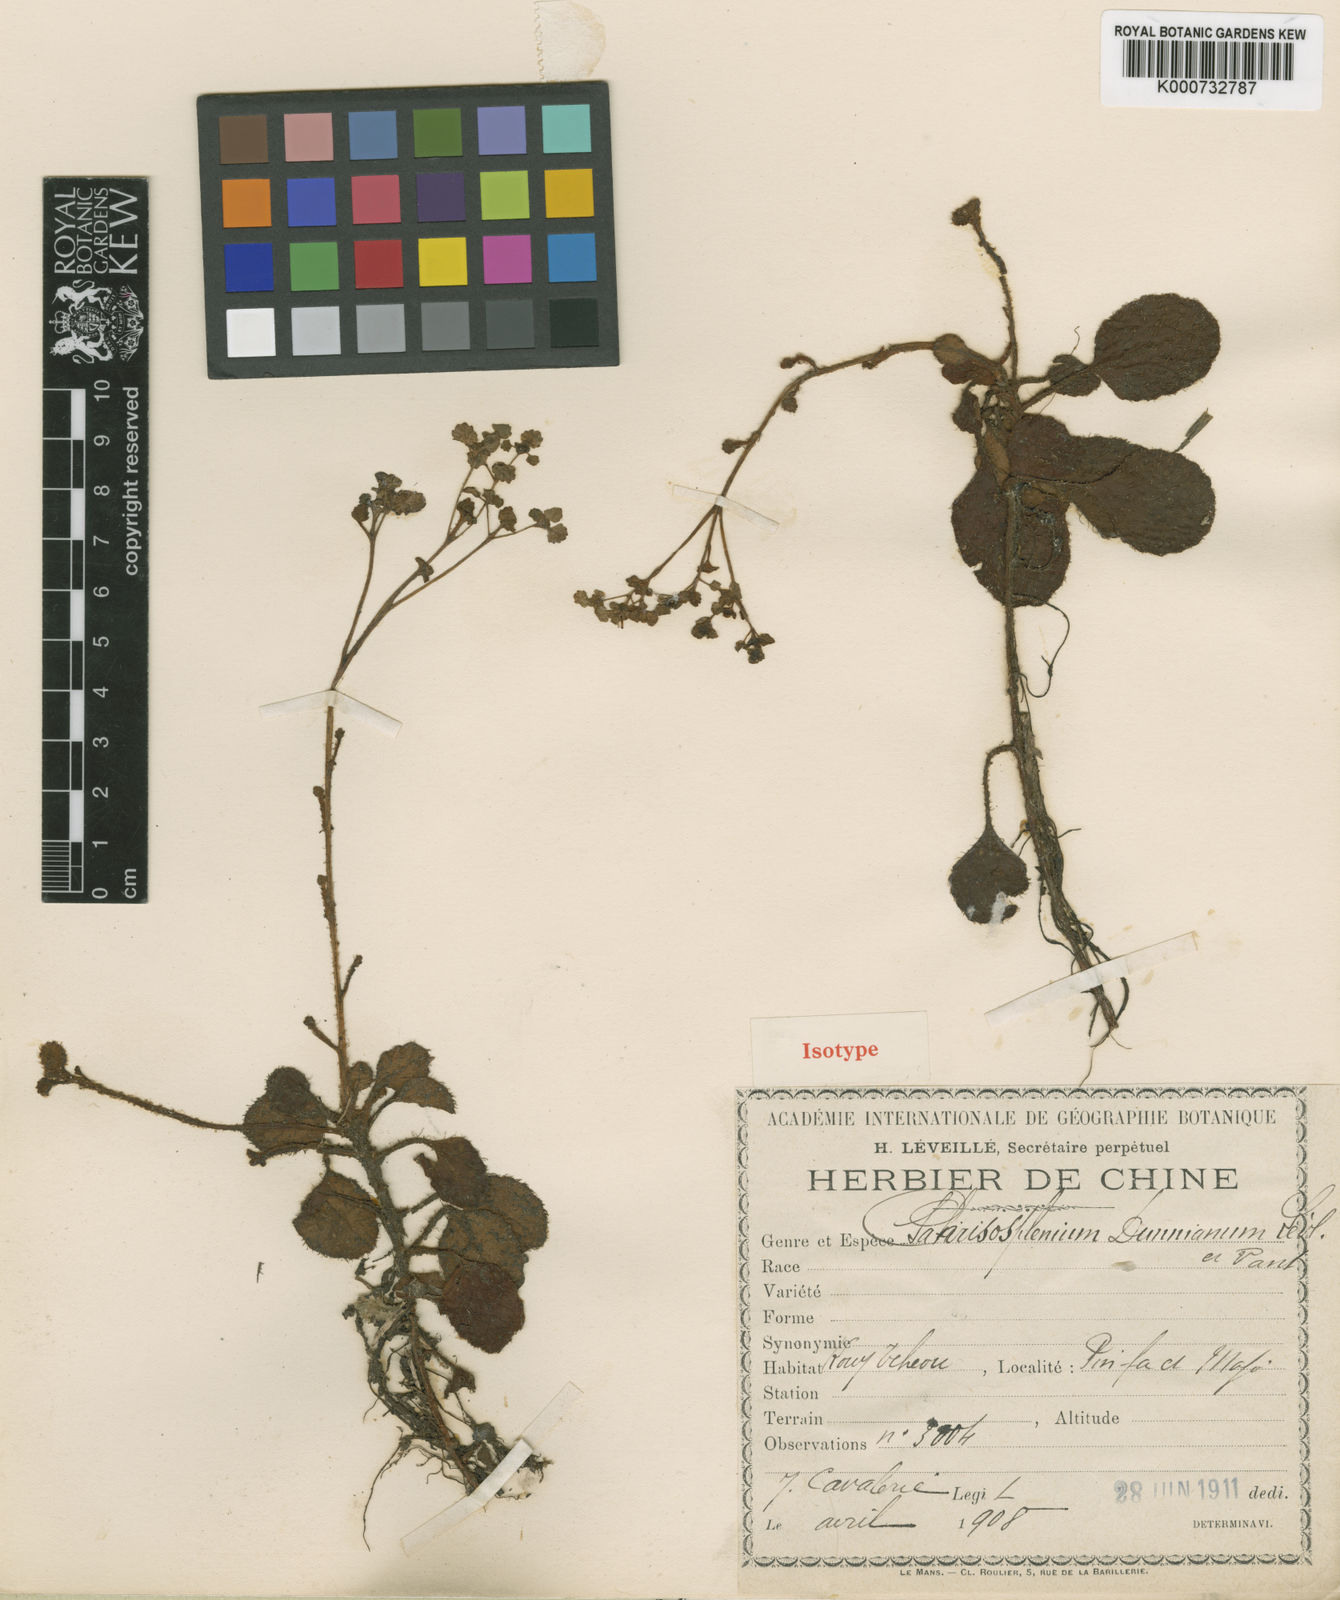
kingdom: Plantae
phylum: Tracheophyta
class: Magnoliopsida
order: Saxifragales
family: Saxifragaceae
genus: Chrysosplenium
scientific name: Chrysosplenium lanuginosum
